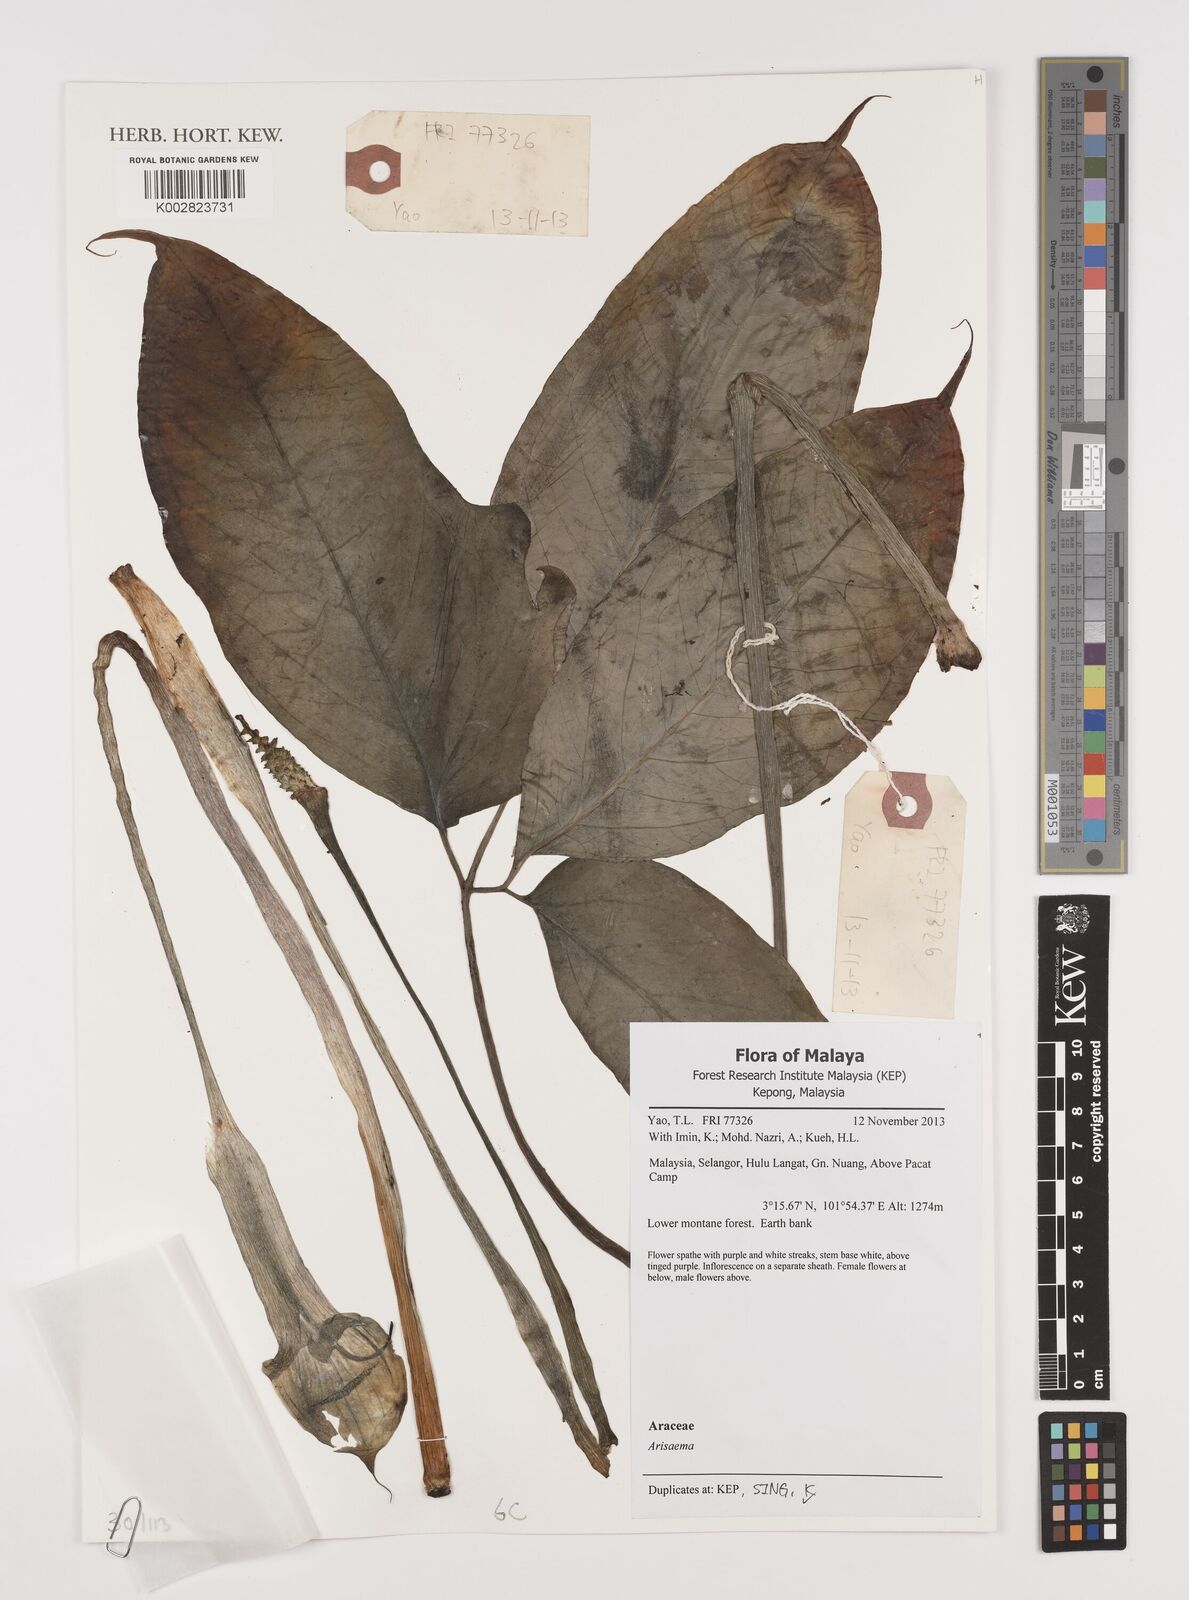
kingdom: Plantae
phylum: Tracheophyta
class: Liliopsida
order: Alismatales
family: Araceae
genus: Arisaema
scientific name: Arisaema
